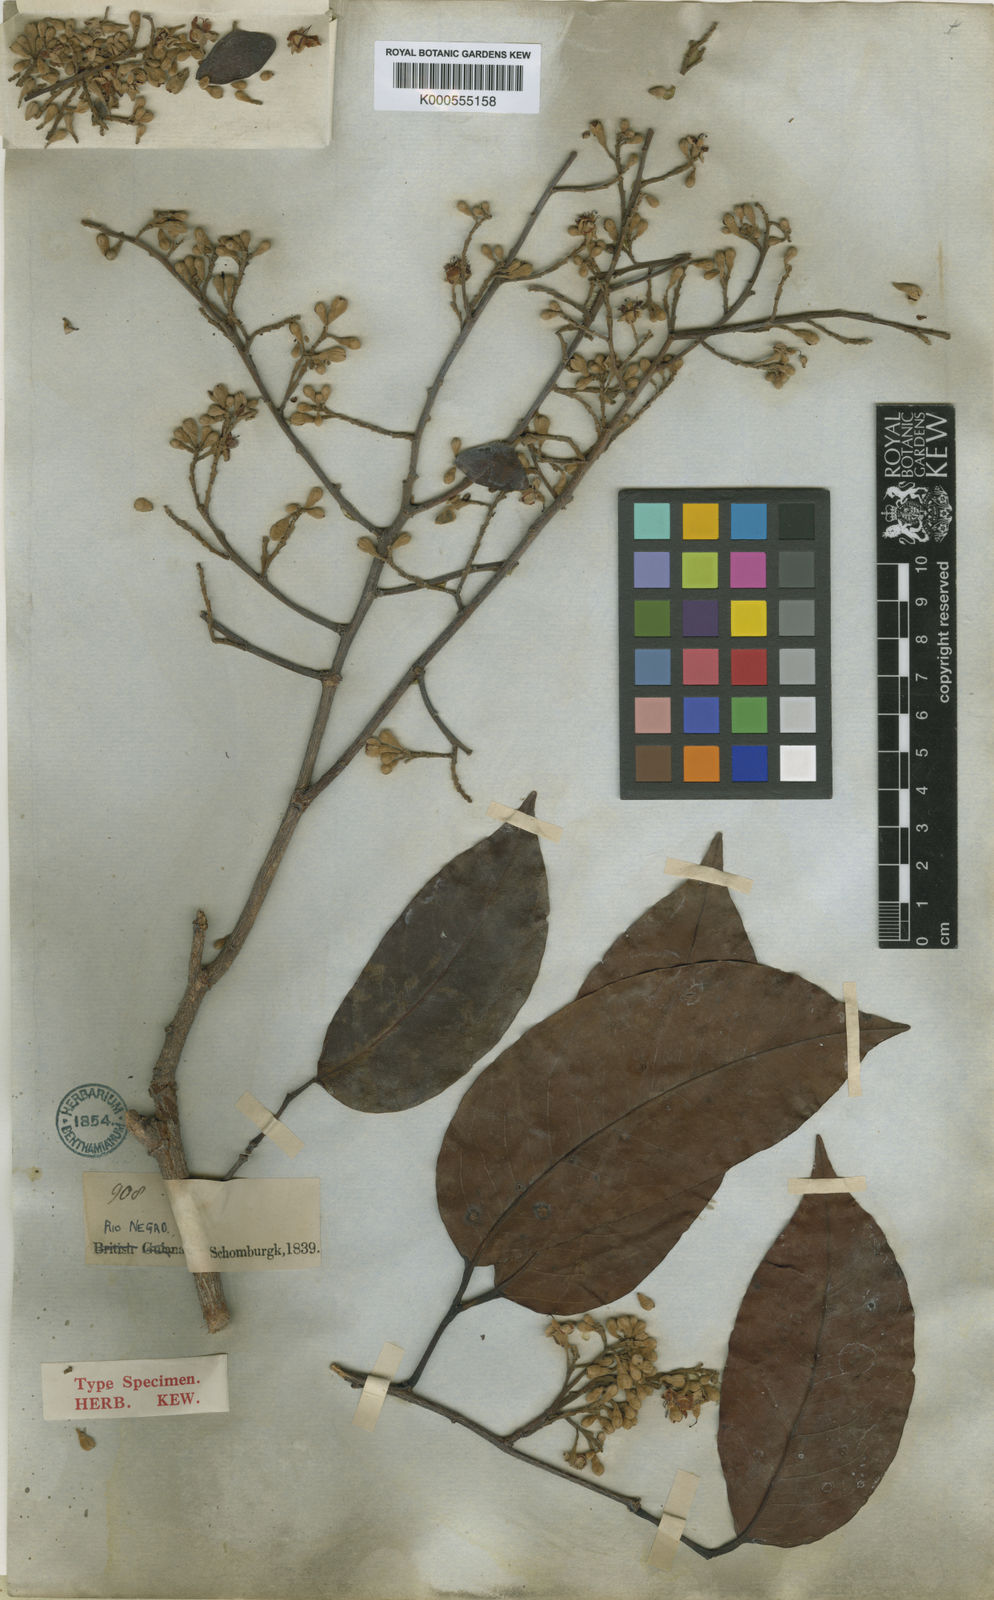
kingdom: Plantae
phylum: Tracheophyta
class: Magnoliopsida
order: Fabales
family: Fabaceae
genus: Peltogyne
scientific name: Peltogyne paniculata
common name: Purpleheart
